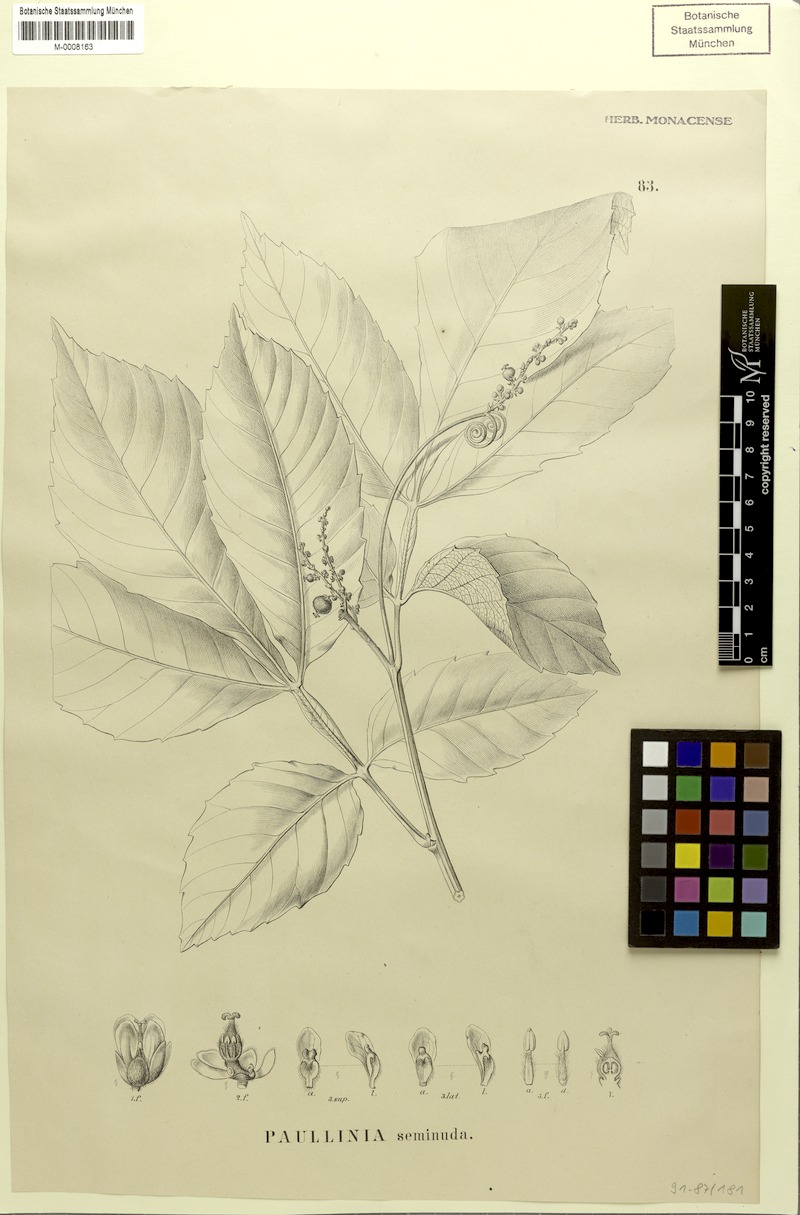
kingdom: Plantae
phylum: Tracheophyta
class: Magnoliopsida
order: Sapindales
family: Sapindaceae
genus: Paullinia
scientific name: Paullinia seminuda
